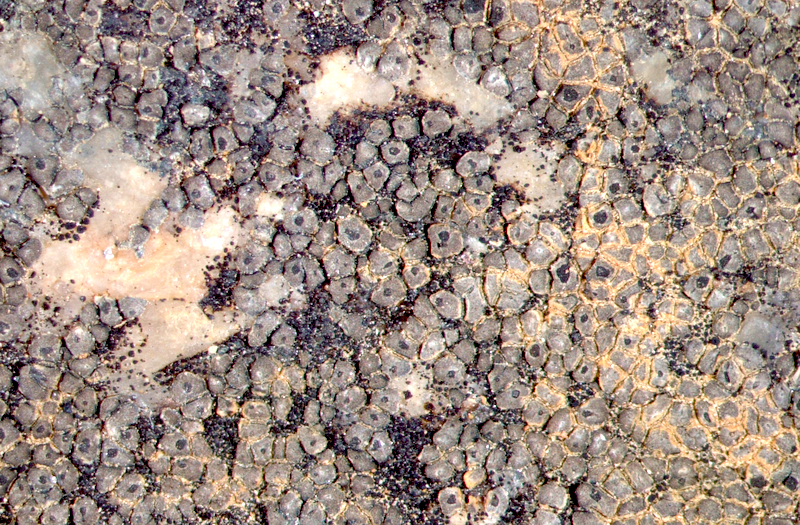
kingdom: Fungi
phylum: Ascomycota
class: Lecanoromycetes
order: Caliciales
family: Physciaceae
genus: Rinodina
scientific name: Rinodina
